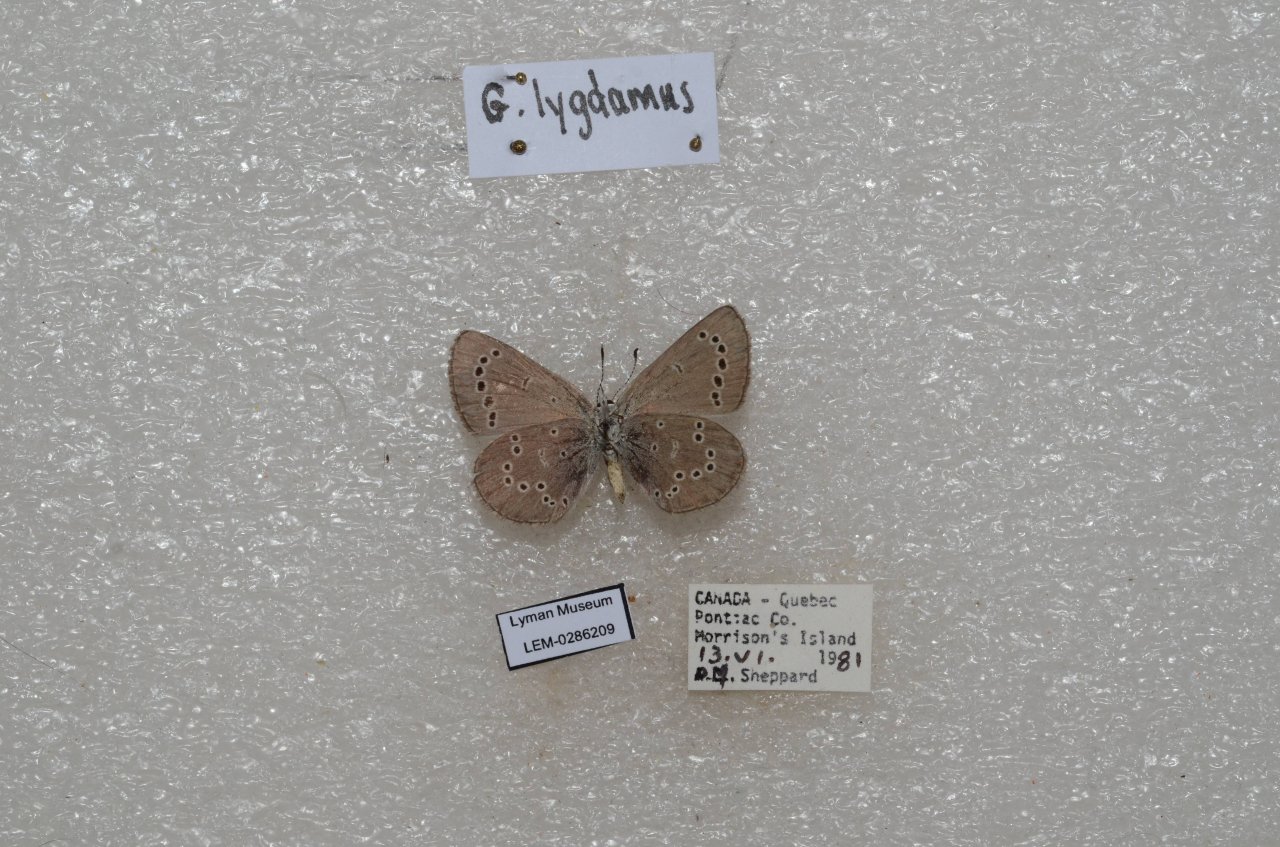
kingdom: Animalia
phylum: Arthropoda
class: Insecta
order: Lepidoptera
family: Lycaenidae
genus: Glaucopsyche
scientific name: Glaucopsyche lygdamus
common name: Silvery Blue
